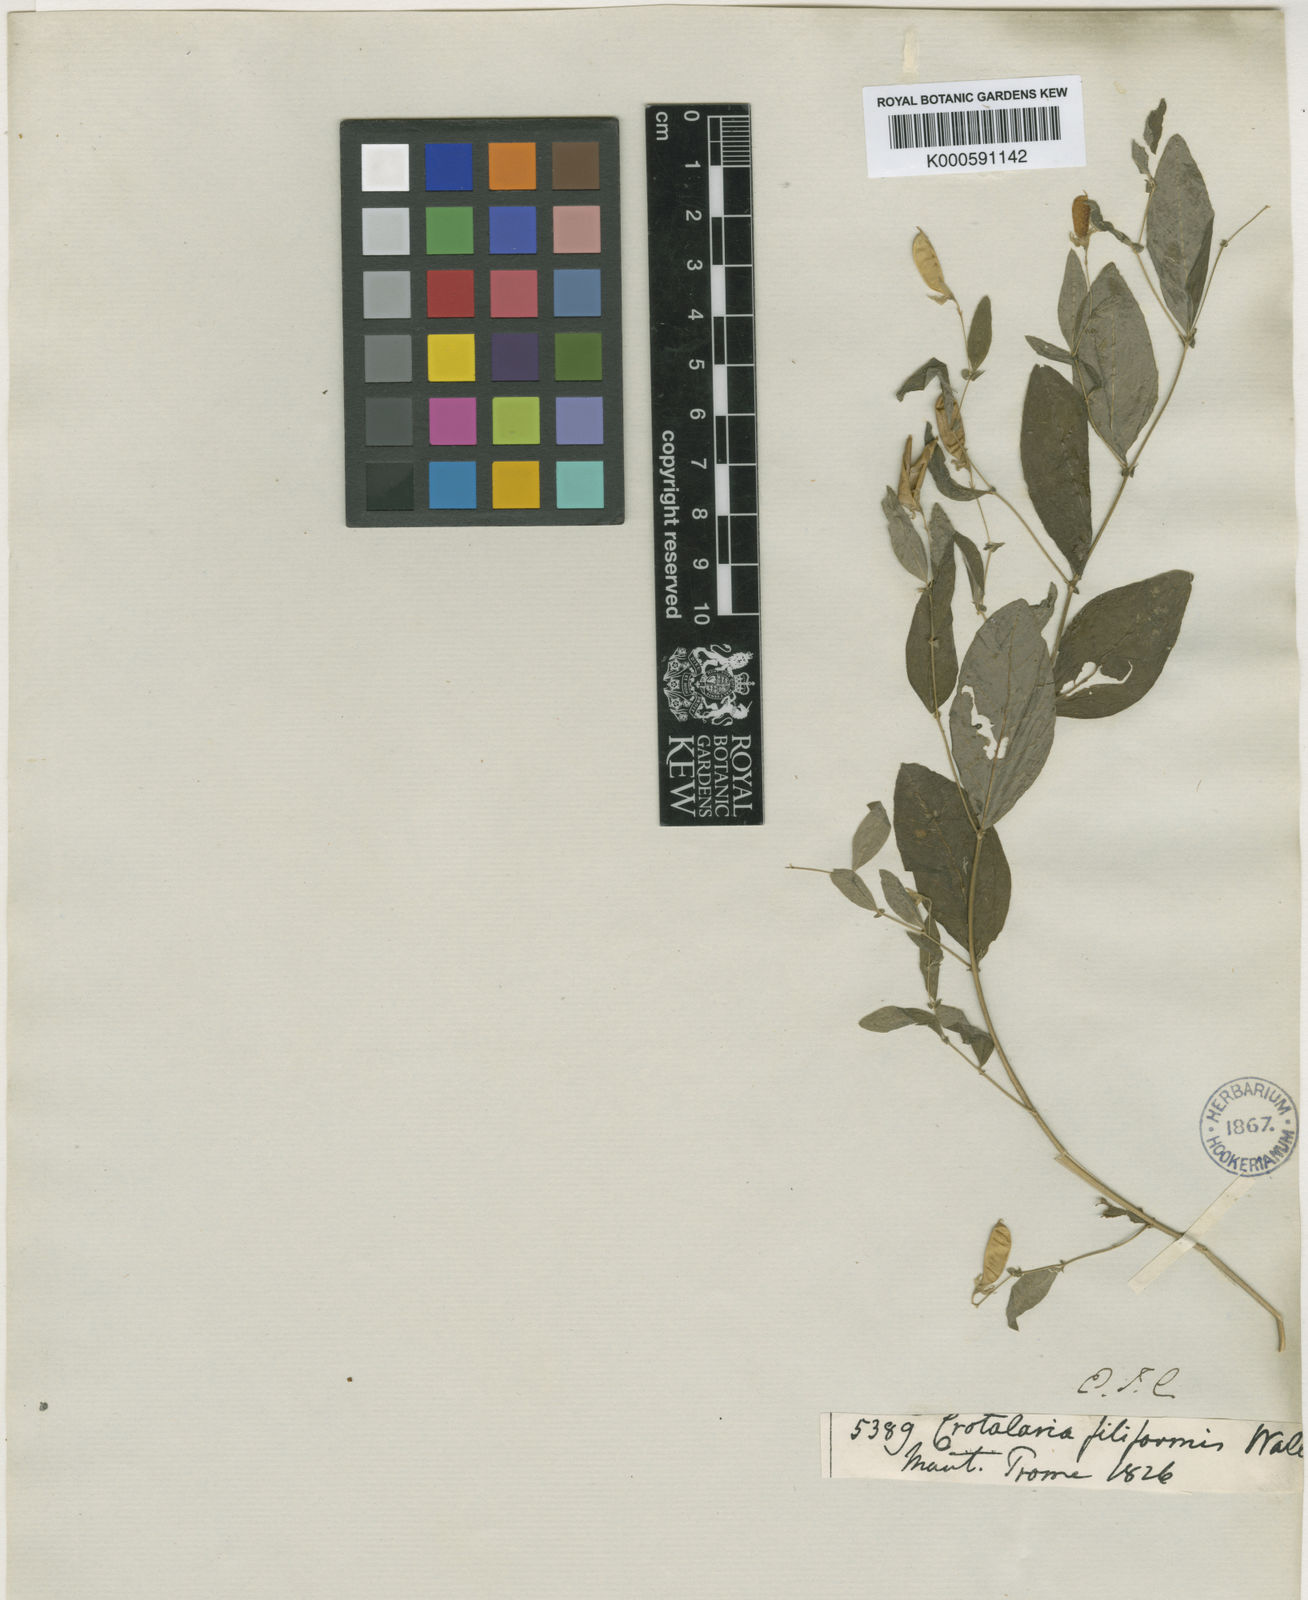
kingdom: Plantae
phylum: Tracheophyta
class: Magnoliopsida
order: Fabales
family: Fabaceae
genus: Crotalaria
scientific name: Crotalaria
